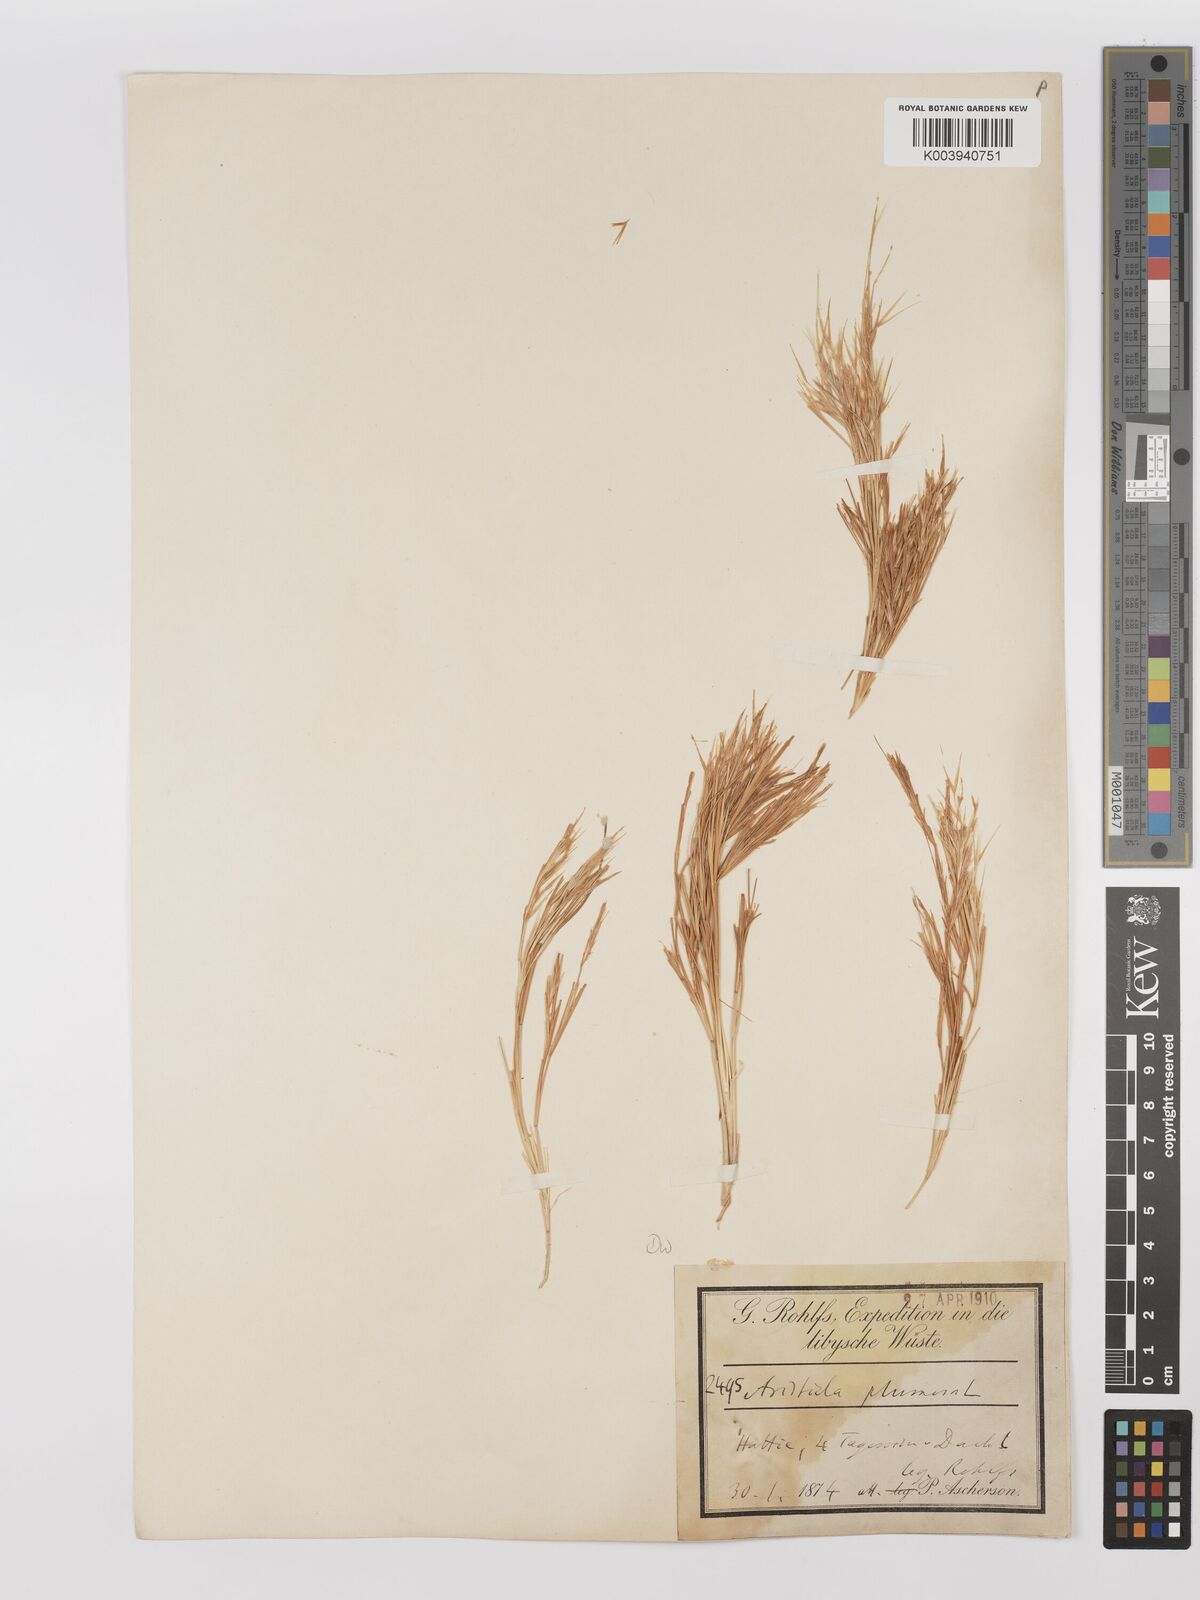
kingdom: Plantae
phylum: Tracheophyta
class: Liliopsida
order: Poales
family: Poaceae
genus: Stipagrostis
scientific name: Stipagrostis plumosa
